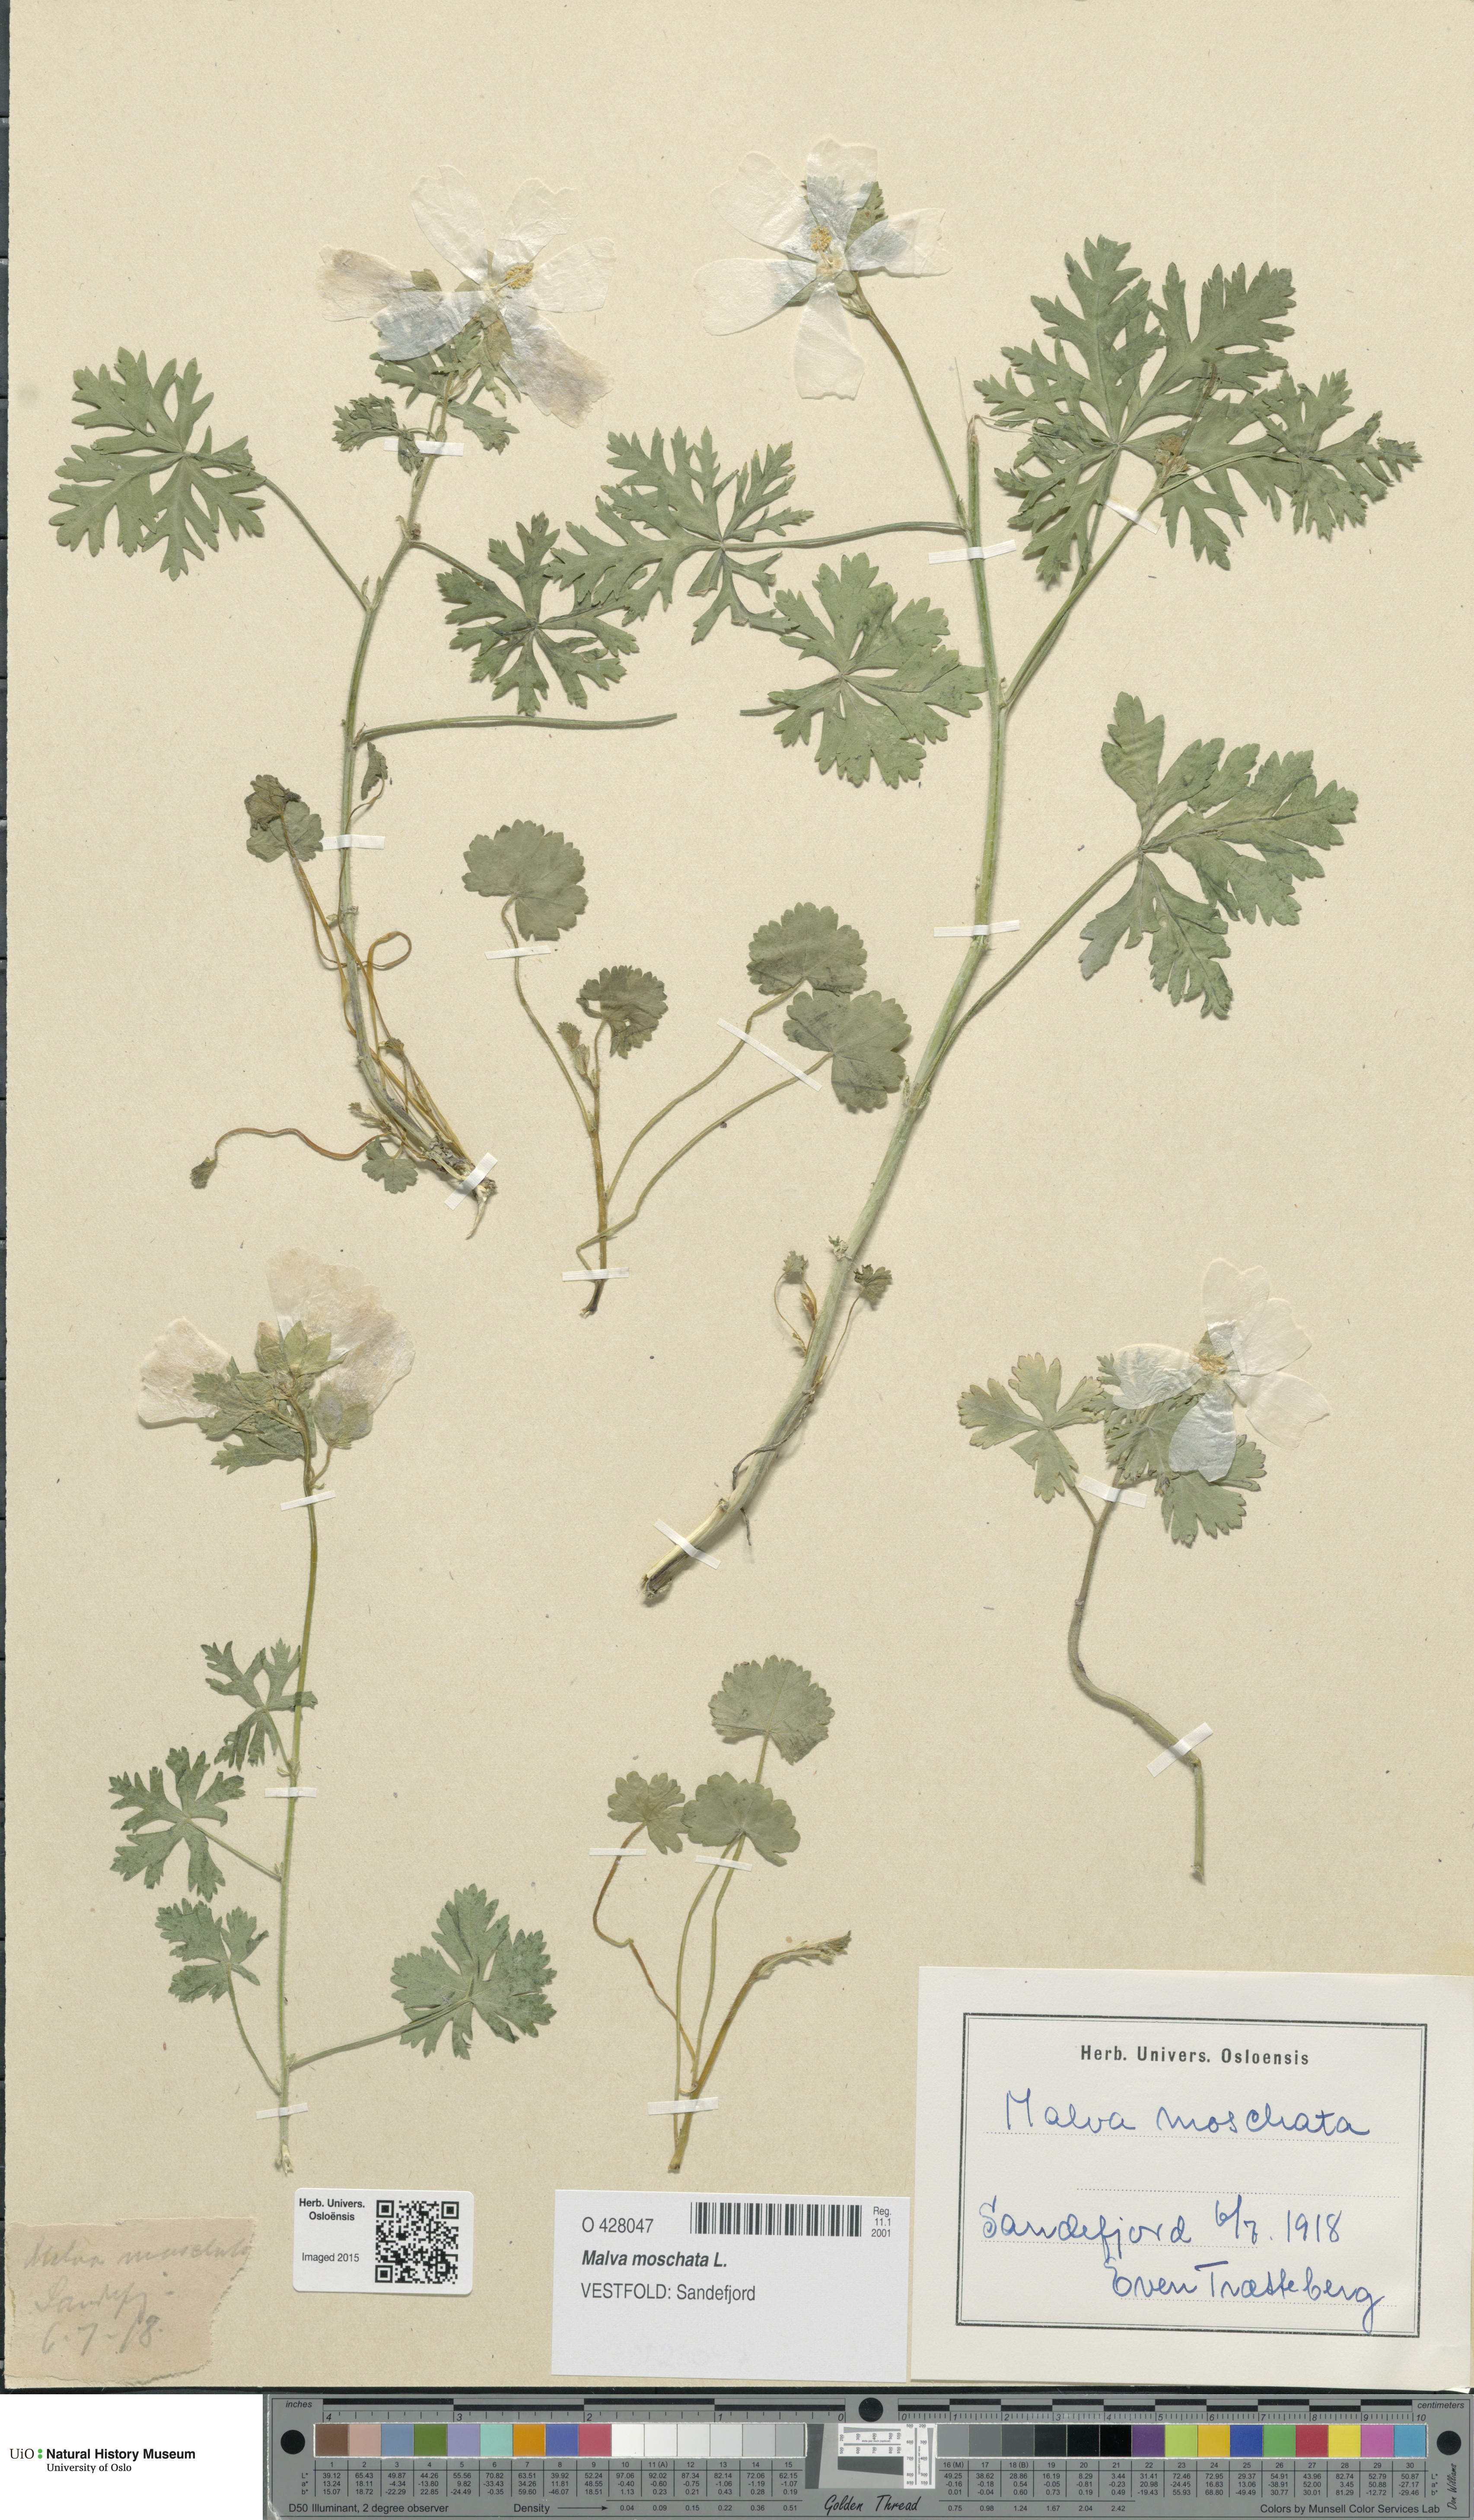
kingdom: Plantae
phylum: Tracheophyta
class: Magnoliopsida
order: Malvales
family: Malvaceae
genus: Malva
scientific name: Malva moschata
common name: Musk mallow
